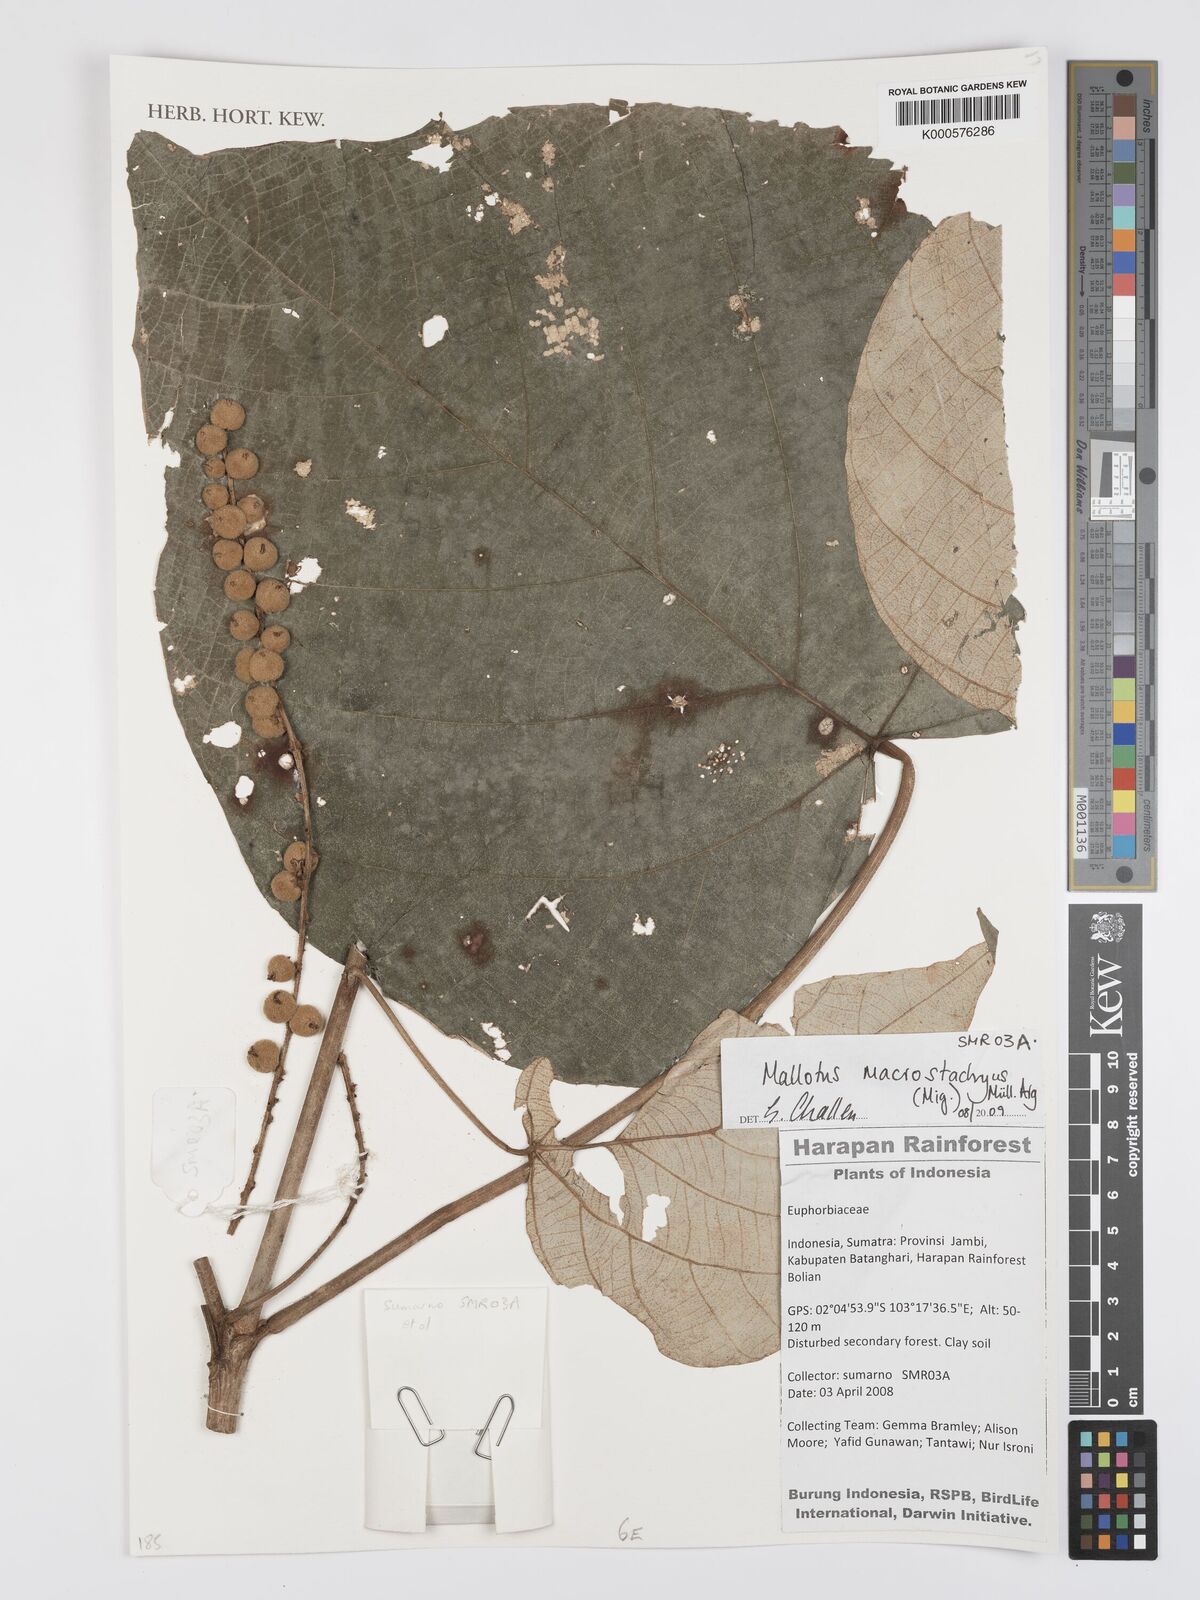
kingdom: Plantae
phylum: Tracheophyta
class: Magnoliopsida
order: Malpighiales
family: Euphorbiaceae
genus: Mallotus
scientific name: Mallotus
